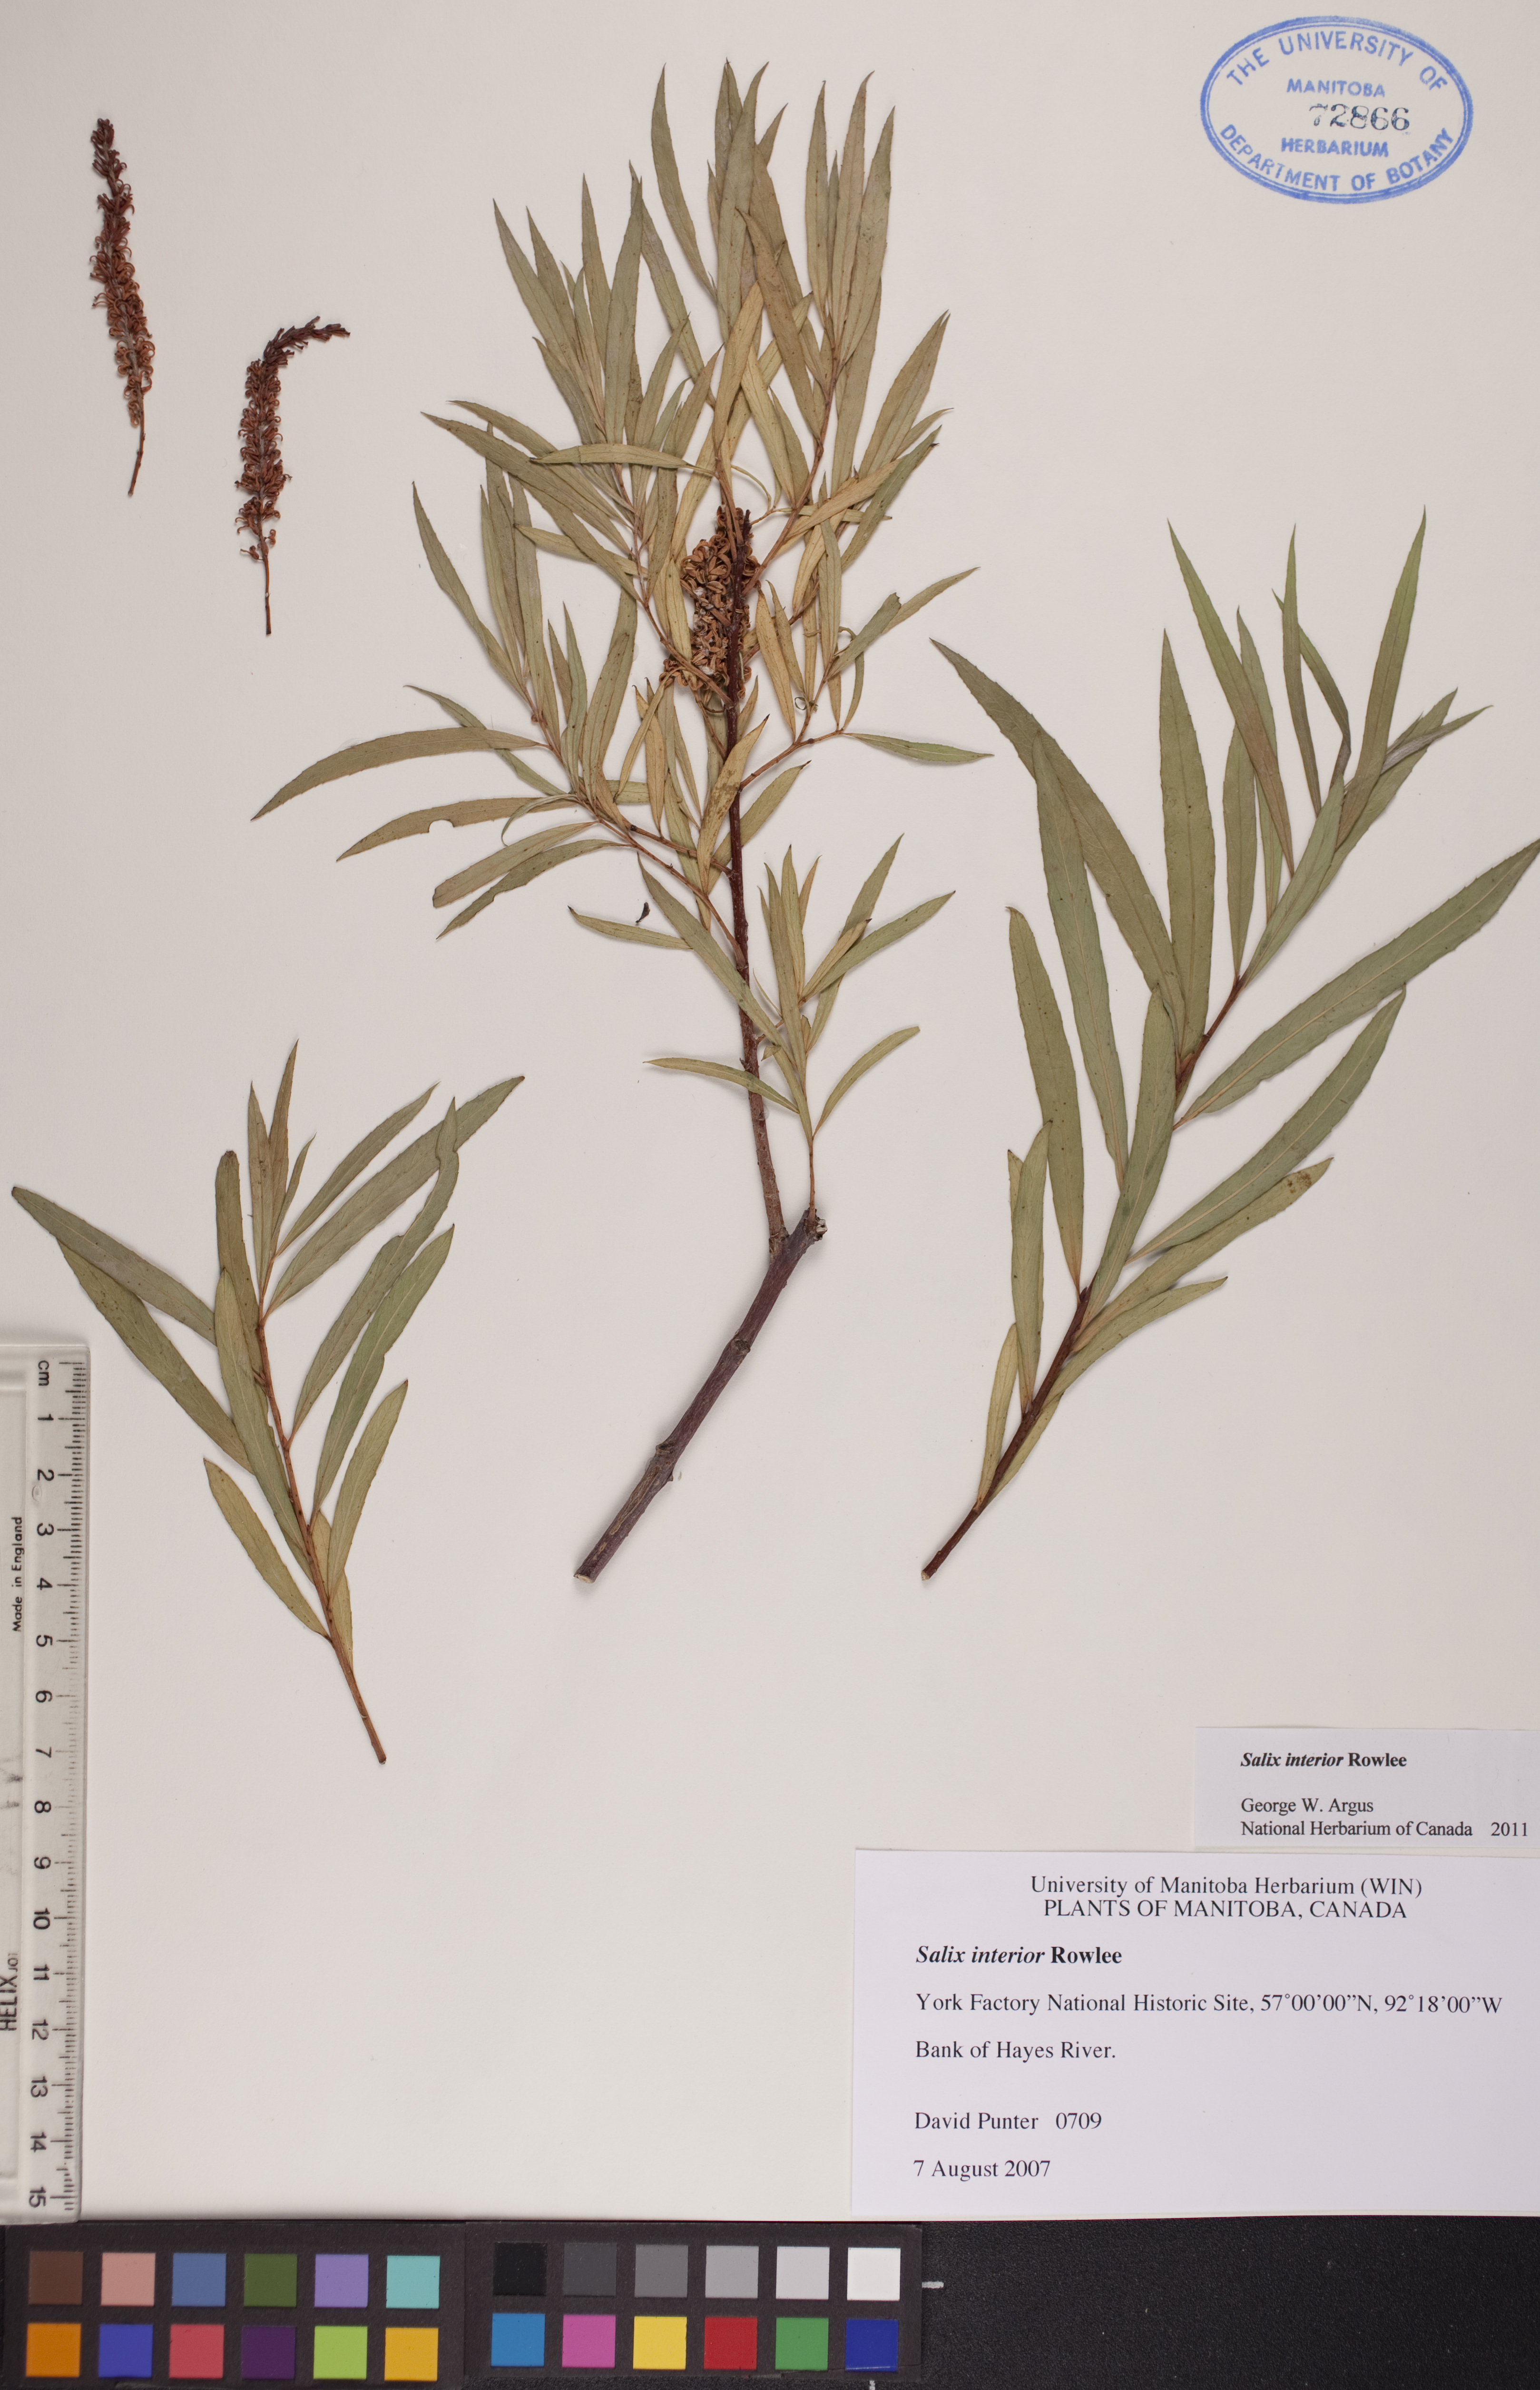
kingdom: Plantae
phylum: Tracheophyta
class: Magnoliopsida
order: Malpighiales
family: Salicaceae
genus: Salix
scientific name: Salix interior
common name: Sandbar willow
